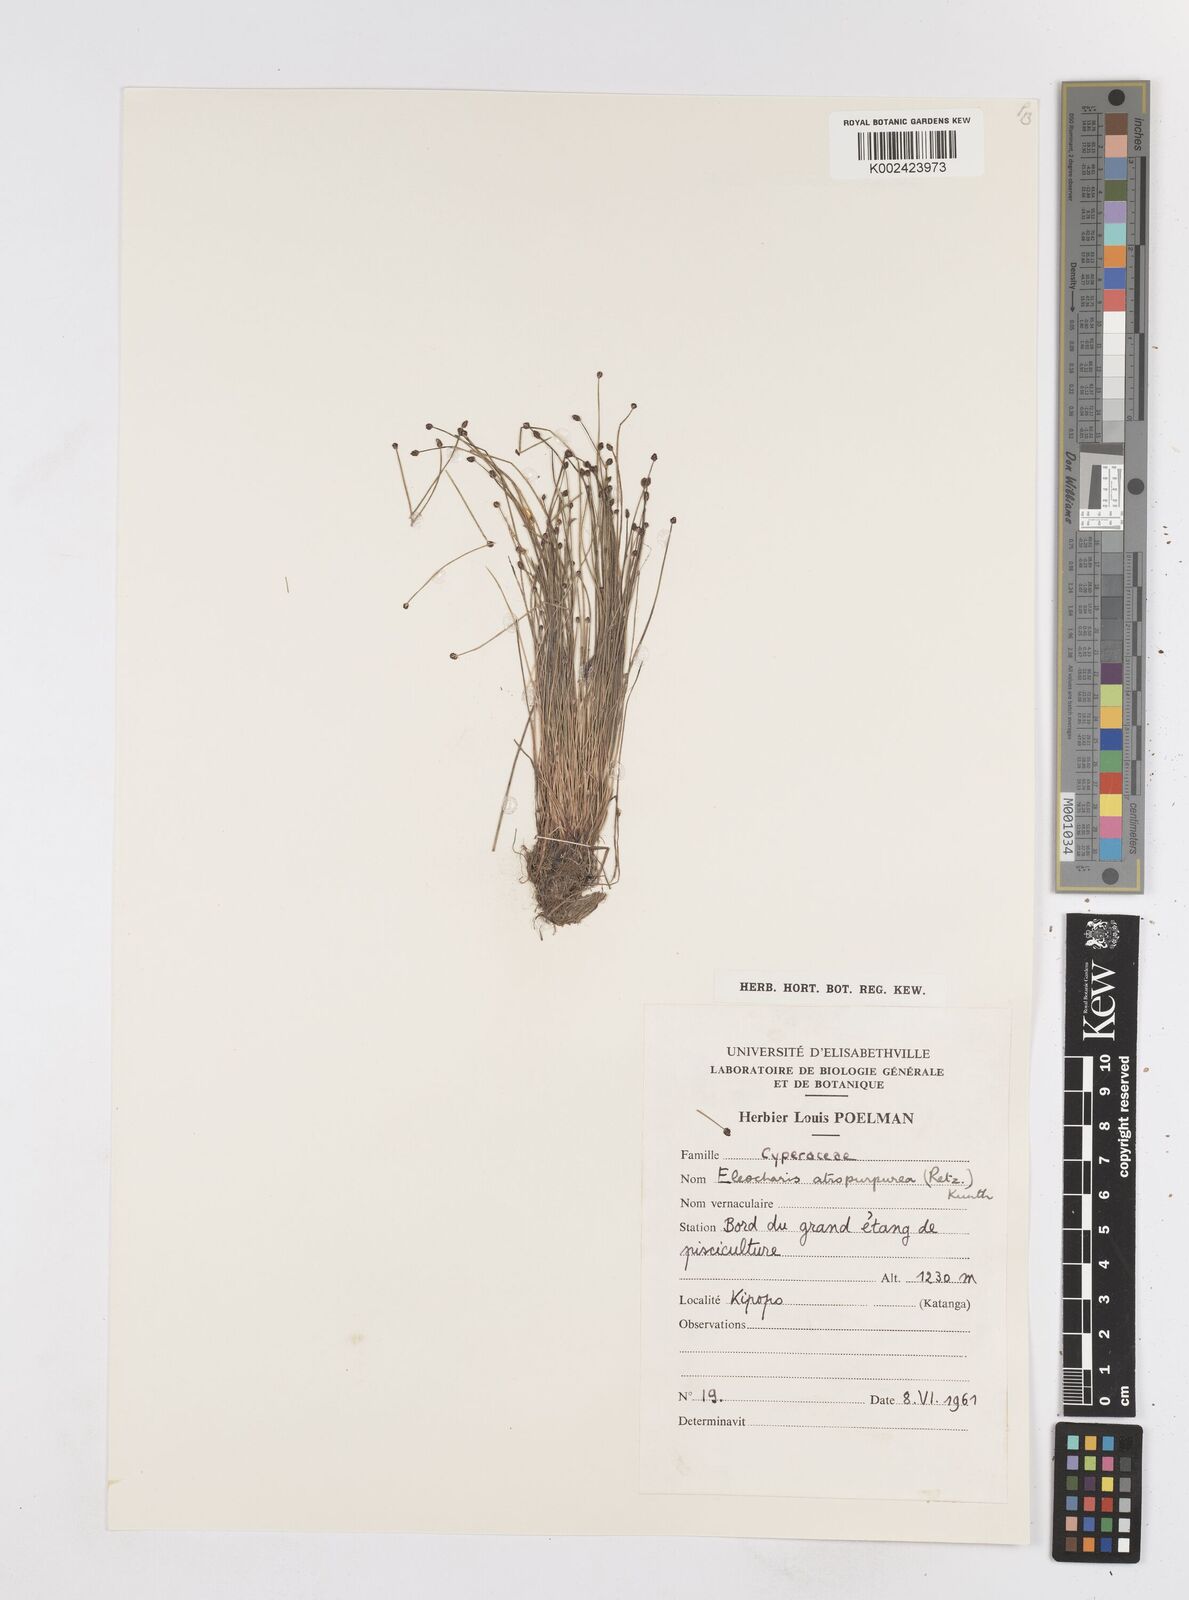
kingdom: Plantae
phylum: Tracheophyta
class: Liliopsida
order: Poales
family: Cyperaceae
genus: Eleocharis
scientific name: Eleocharis atropurpurea
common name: Purple spikerush
